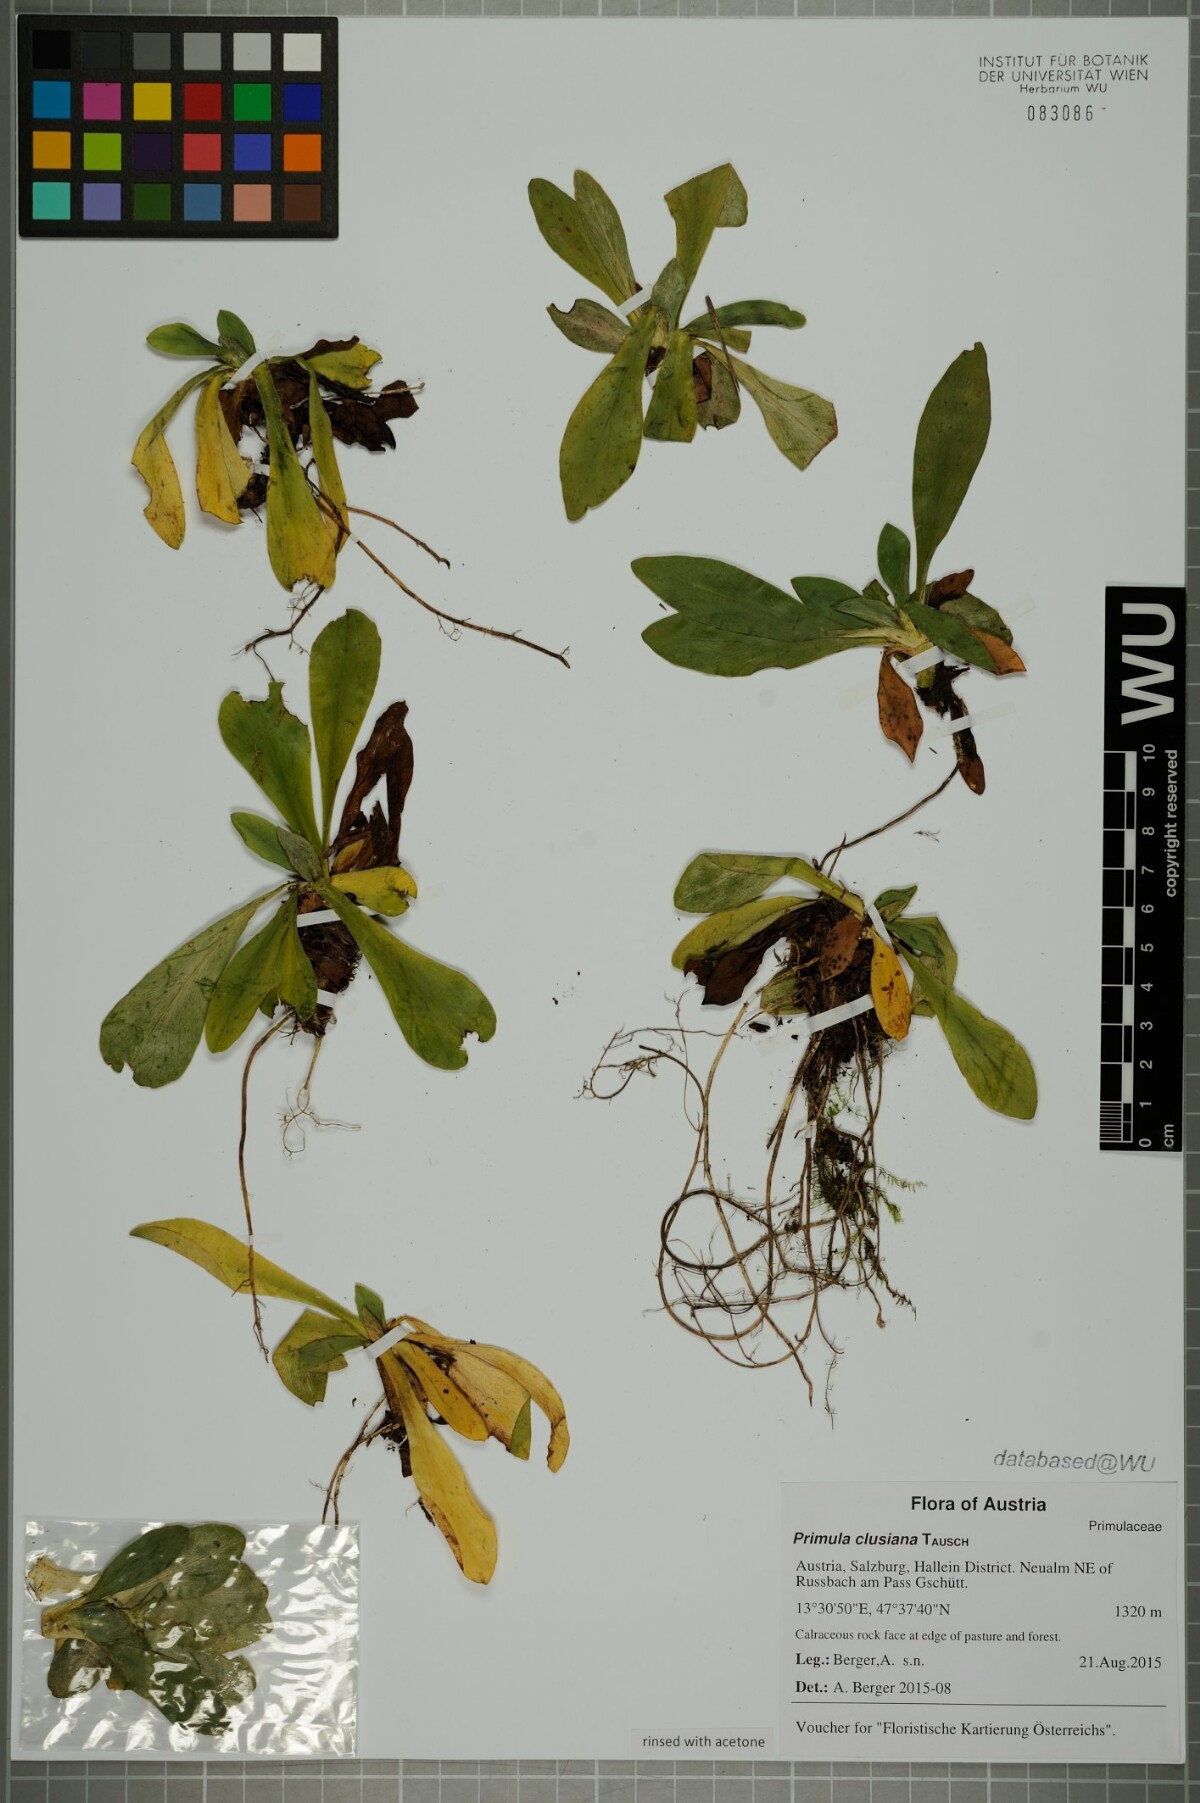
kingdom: Plantae
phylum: Tracheophyta
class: Magnoliopsida
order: Ericales
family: Primulaceae
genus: Primula
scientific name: Primula clusiana
